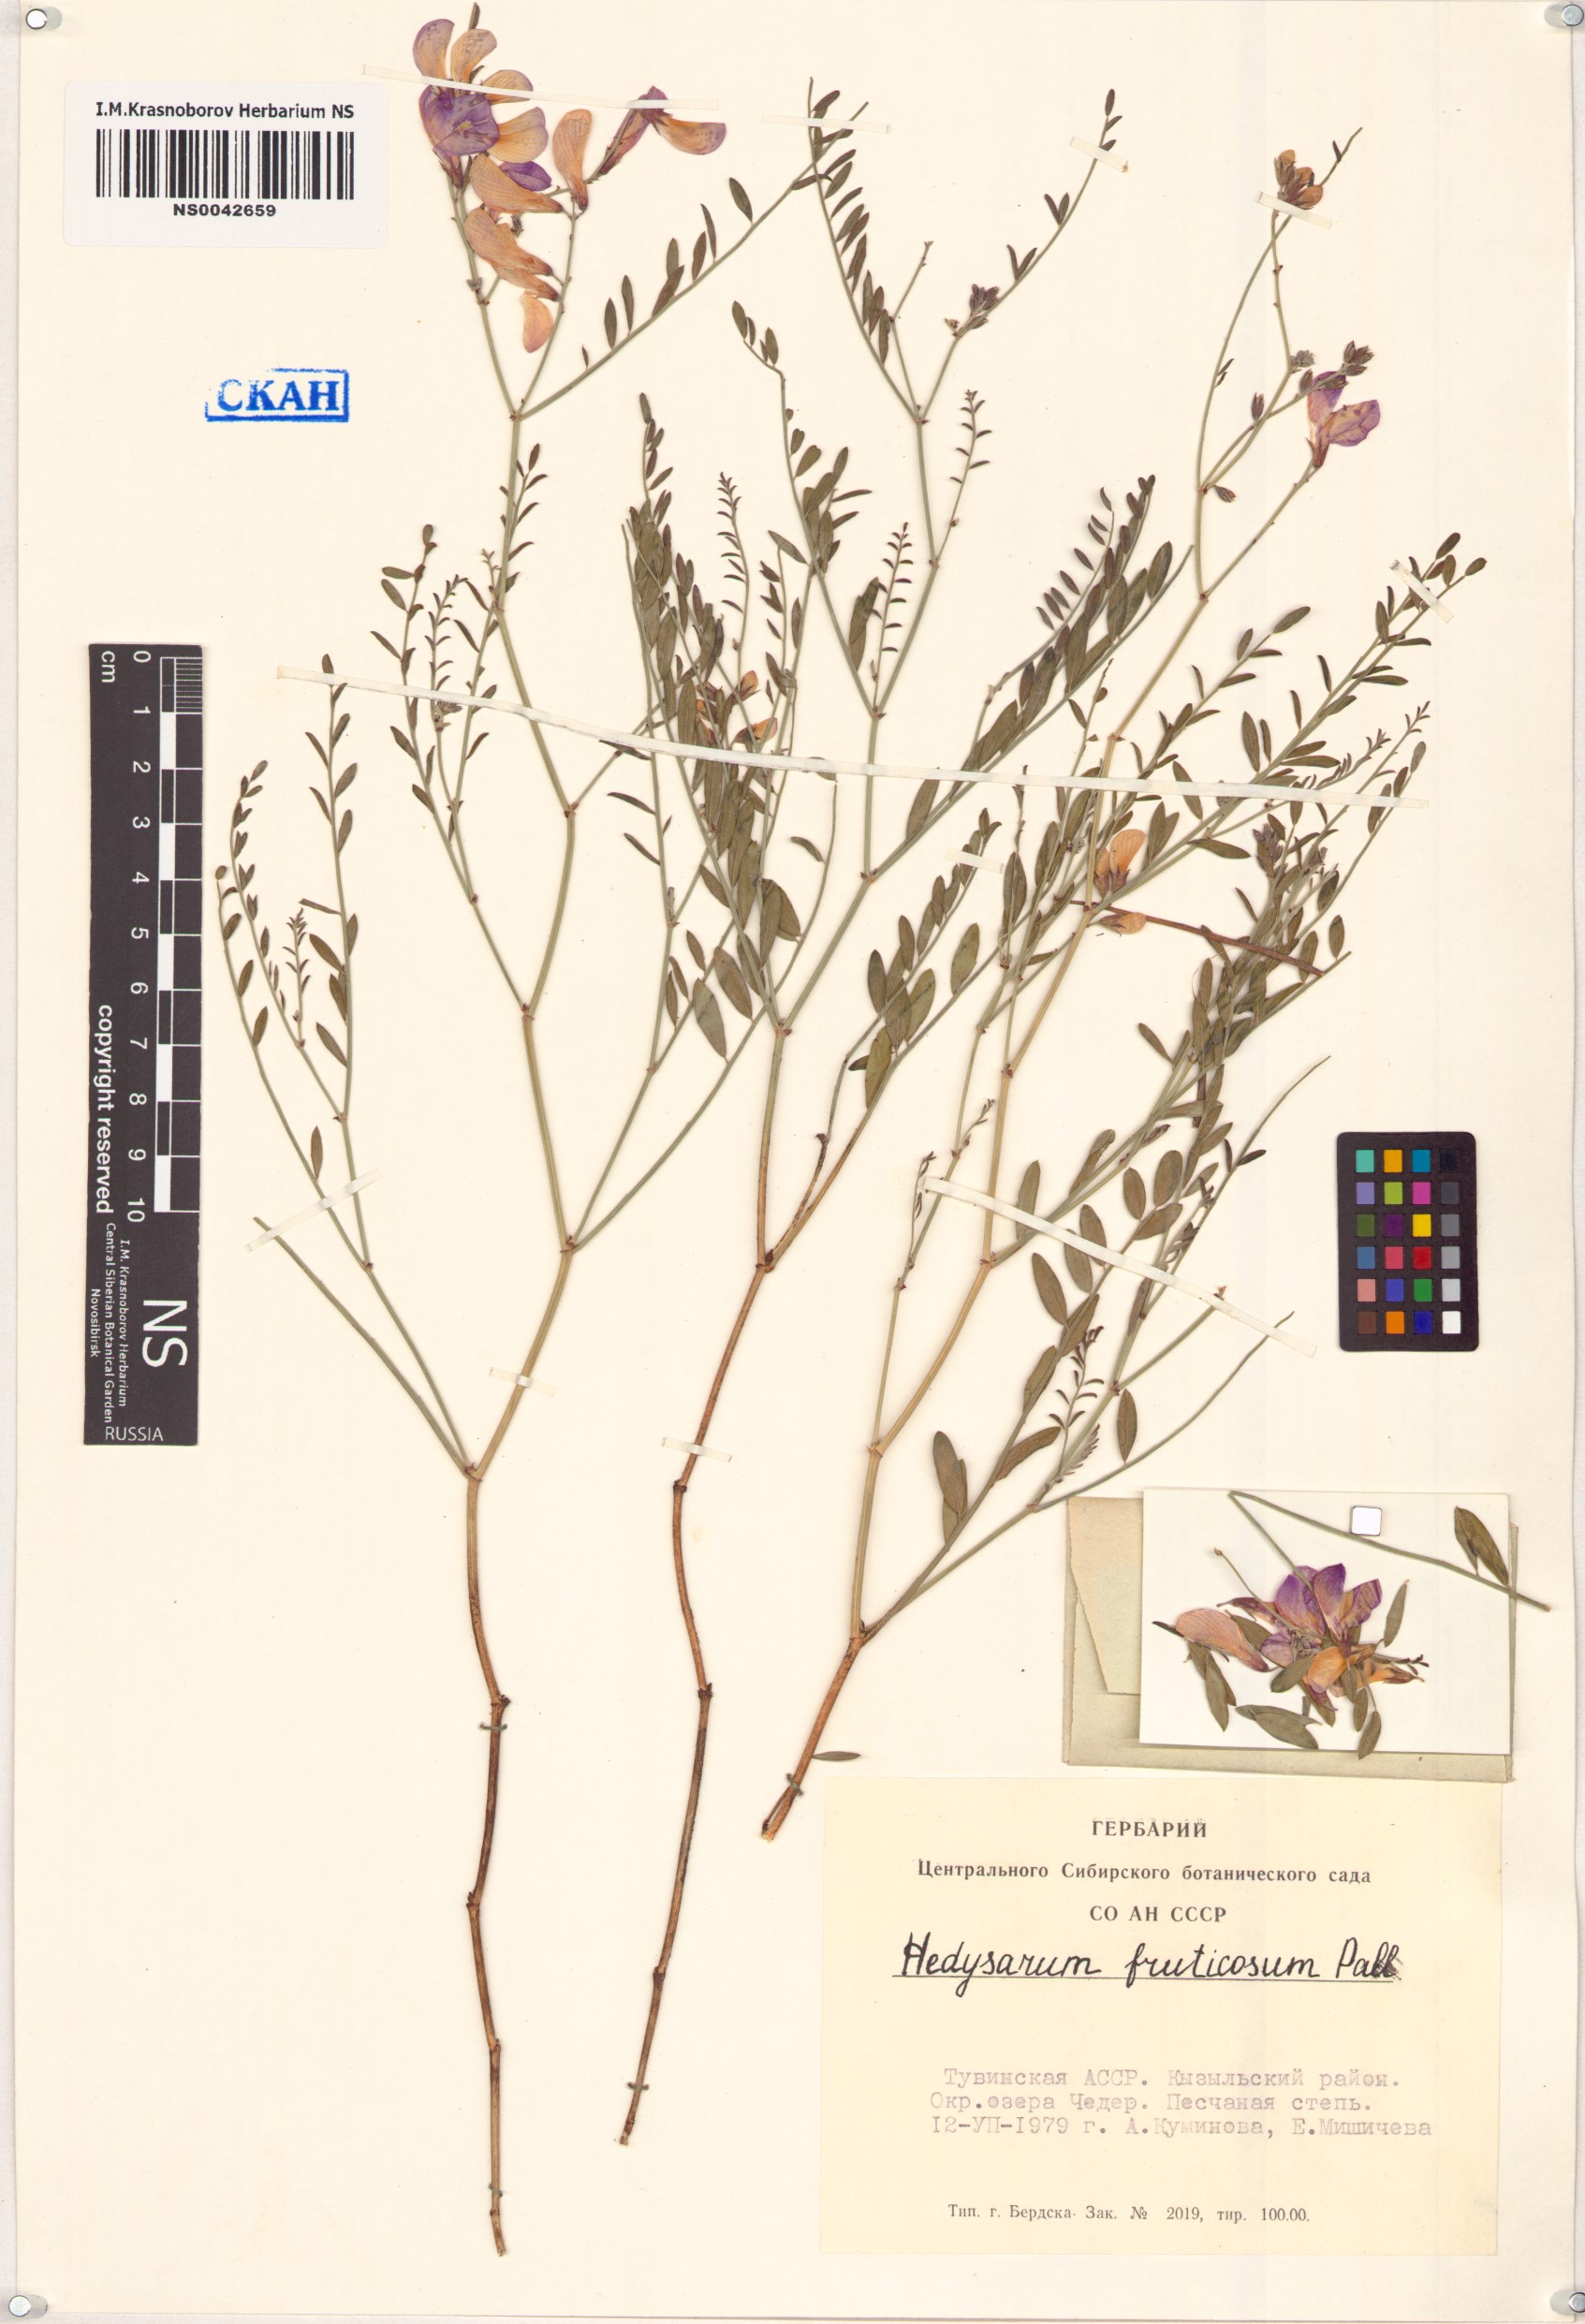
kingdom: Plantae
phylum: Tracheophyta
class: Magnoliopsida
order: Fabales
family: Fabaceae
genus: Corethrodendron
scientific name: Corethrodendron fruticosum
